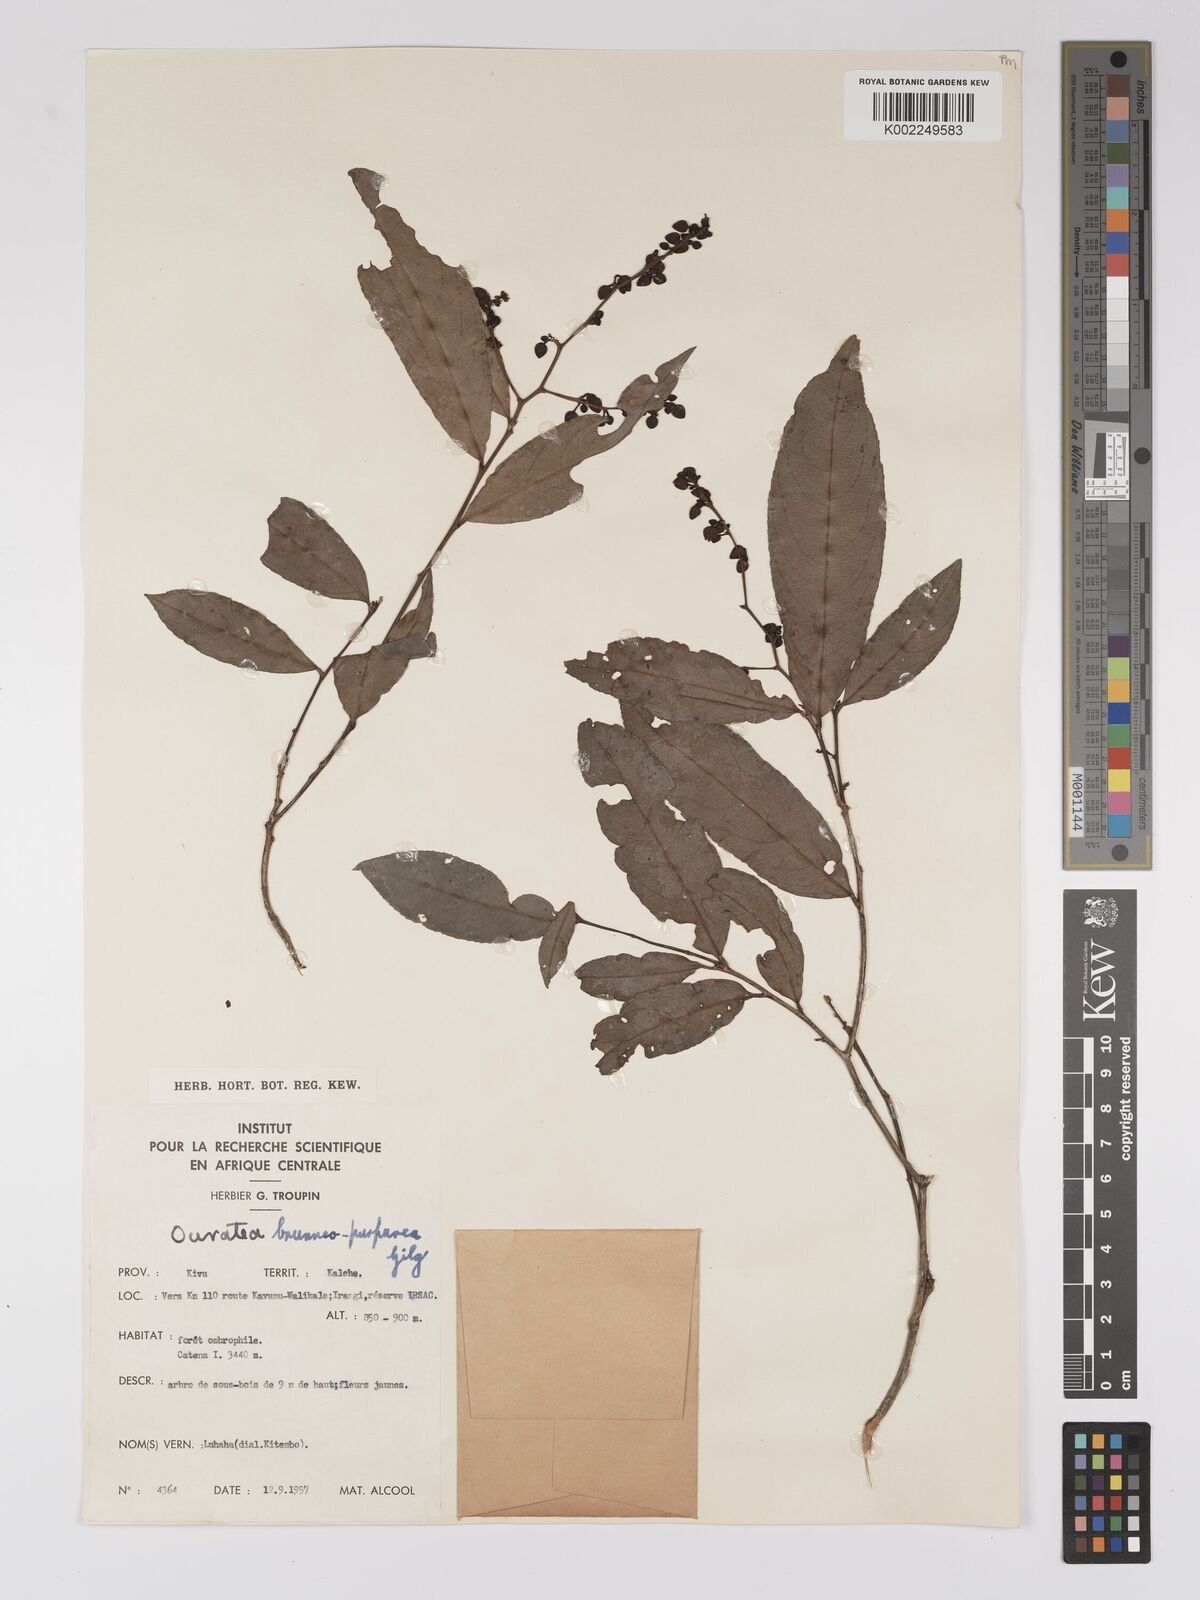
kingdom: Plantae
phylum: Tracheophyta
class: Magnoliopsida
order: Malpighiales
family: Ochnaceae
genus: Campylospermum
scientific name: Campylospermum reticulatum
